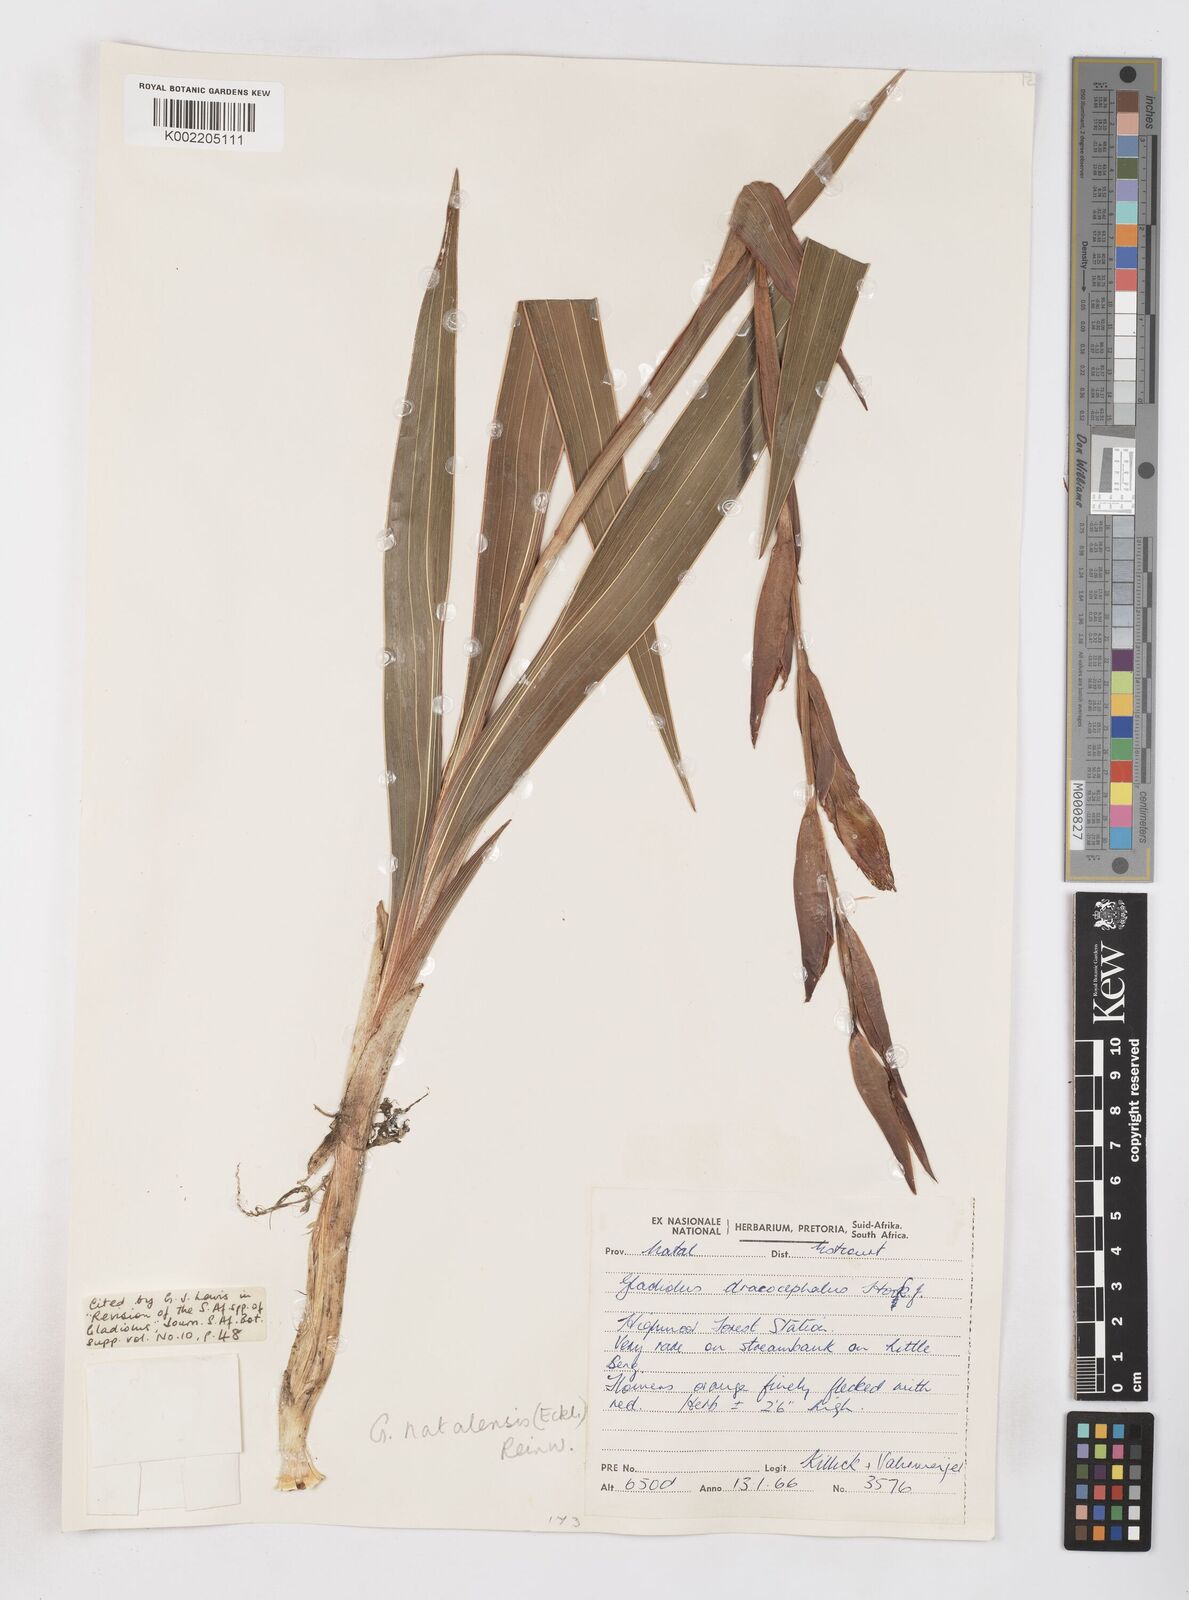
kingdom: Plantae
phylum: Tracheophyta
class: Liliopsida
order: Asparagales
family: Iridaceae
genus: Gladiolus
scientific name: Gladiolus dalenii
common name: Cornflag
